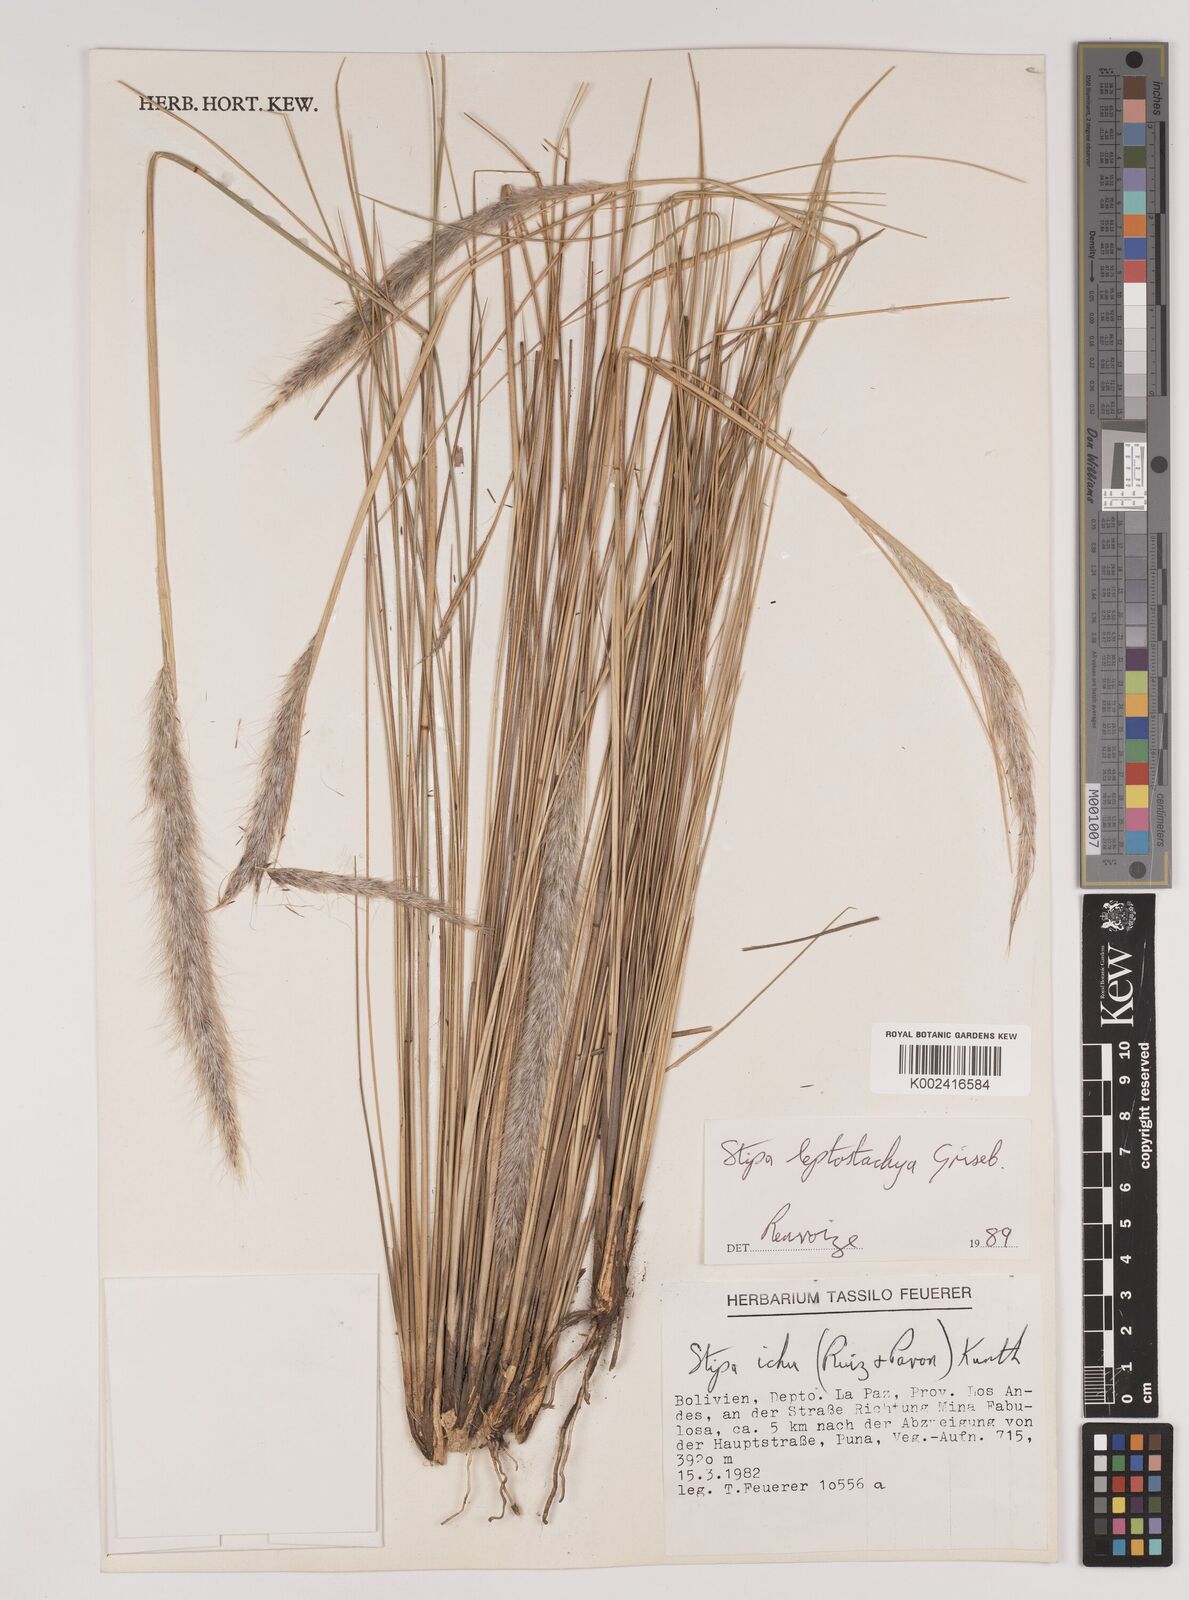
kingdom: Plantae
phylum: Tracheophyta
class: Liliopsida
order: Poales
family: Poaceae
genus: Jarava
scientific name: Jarava leptostachya
